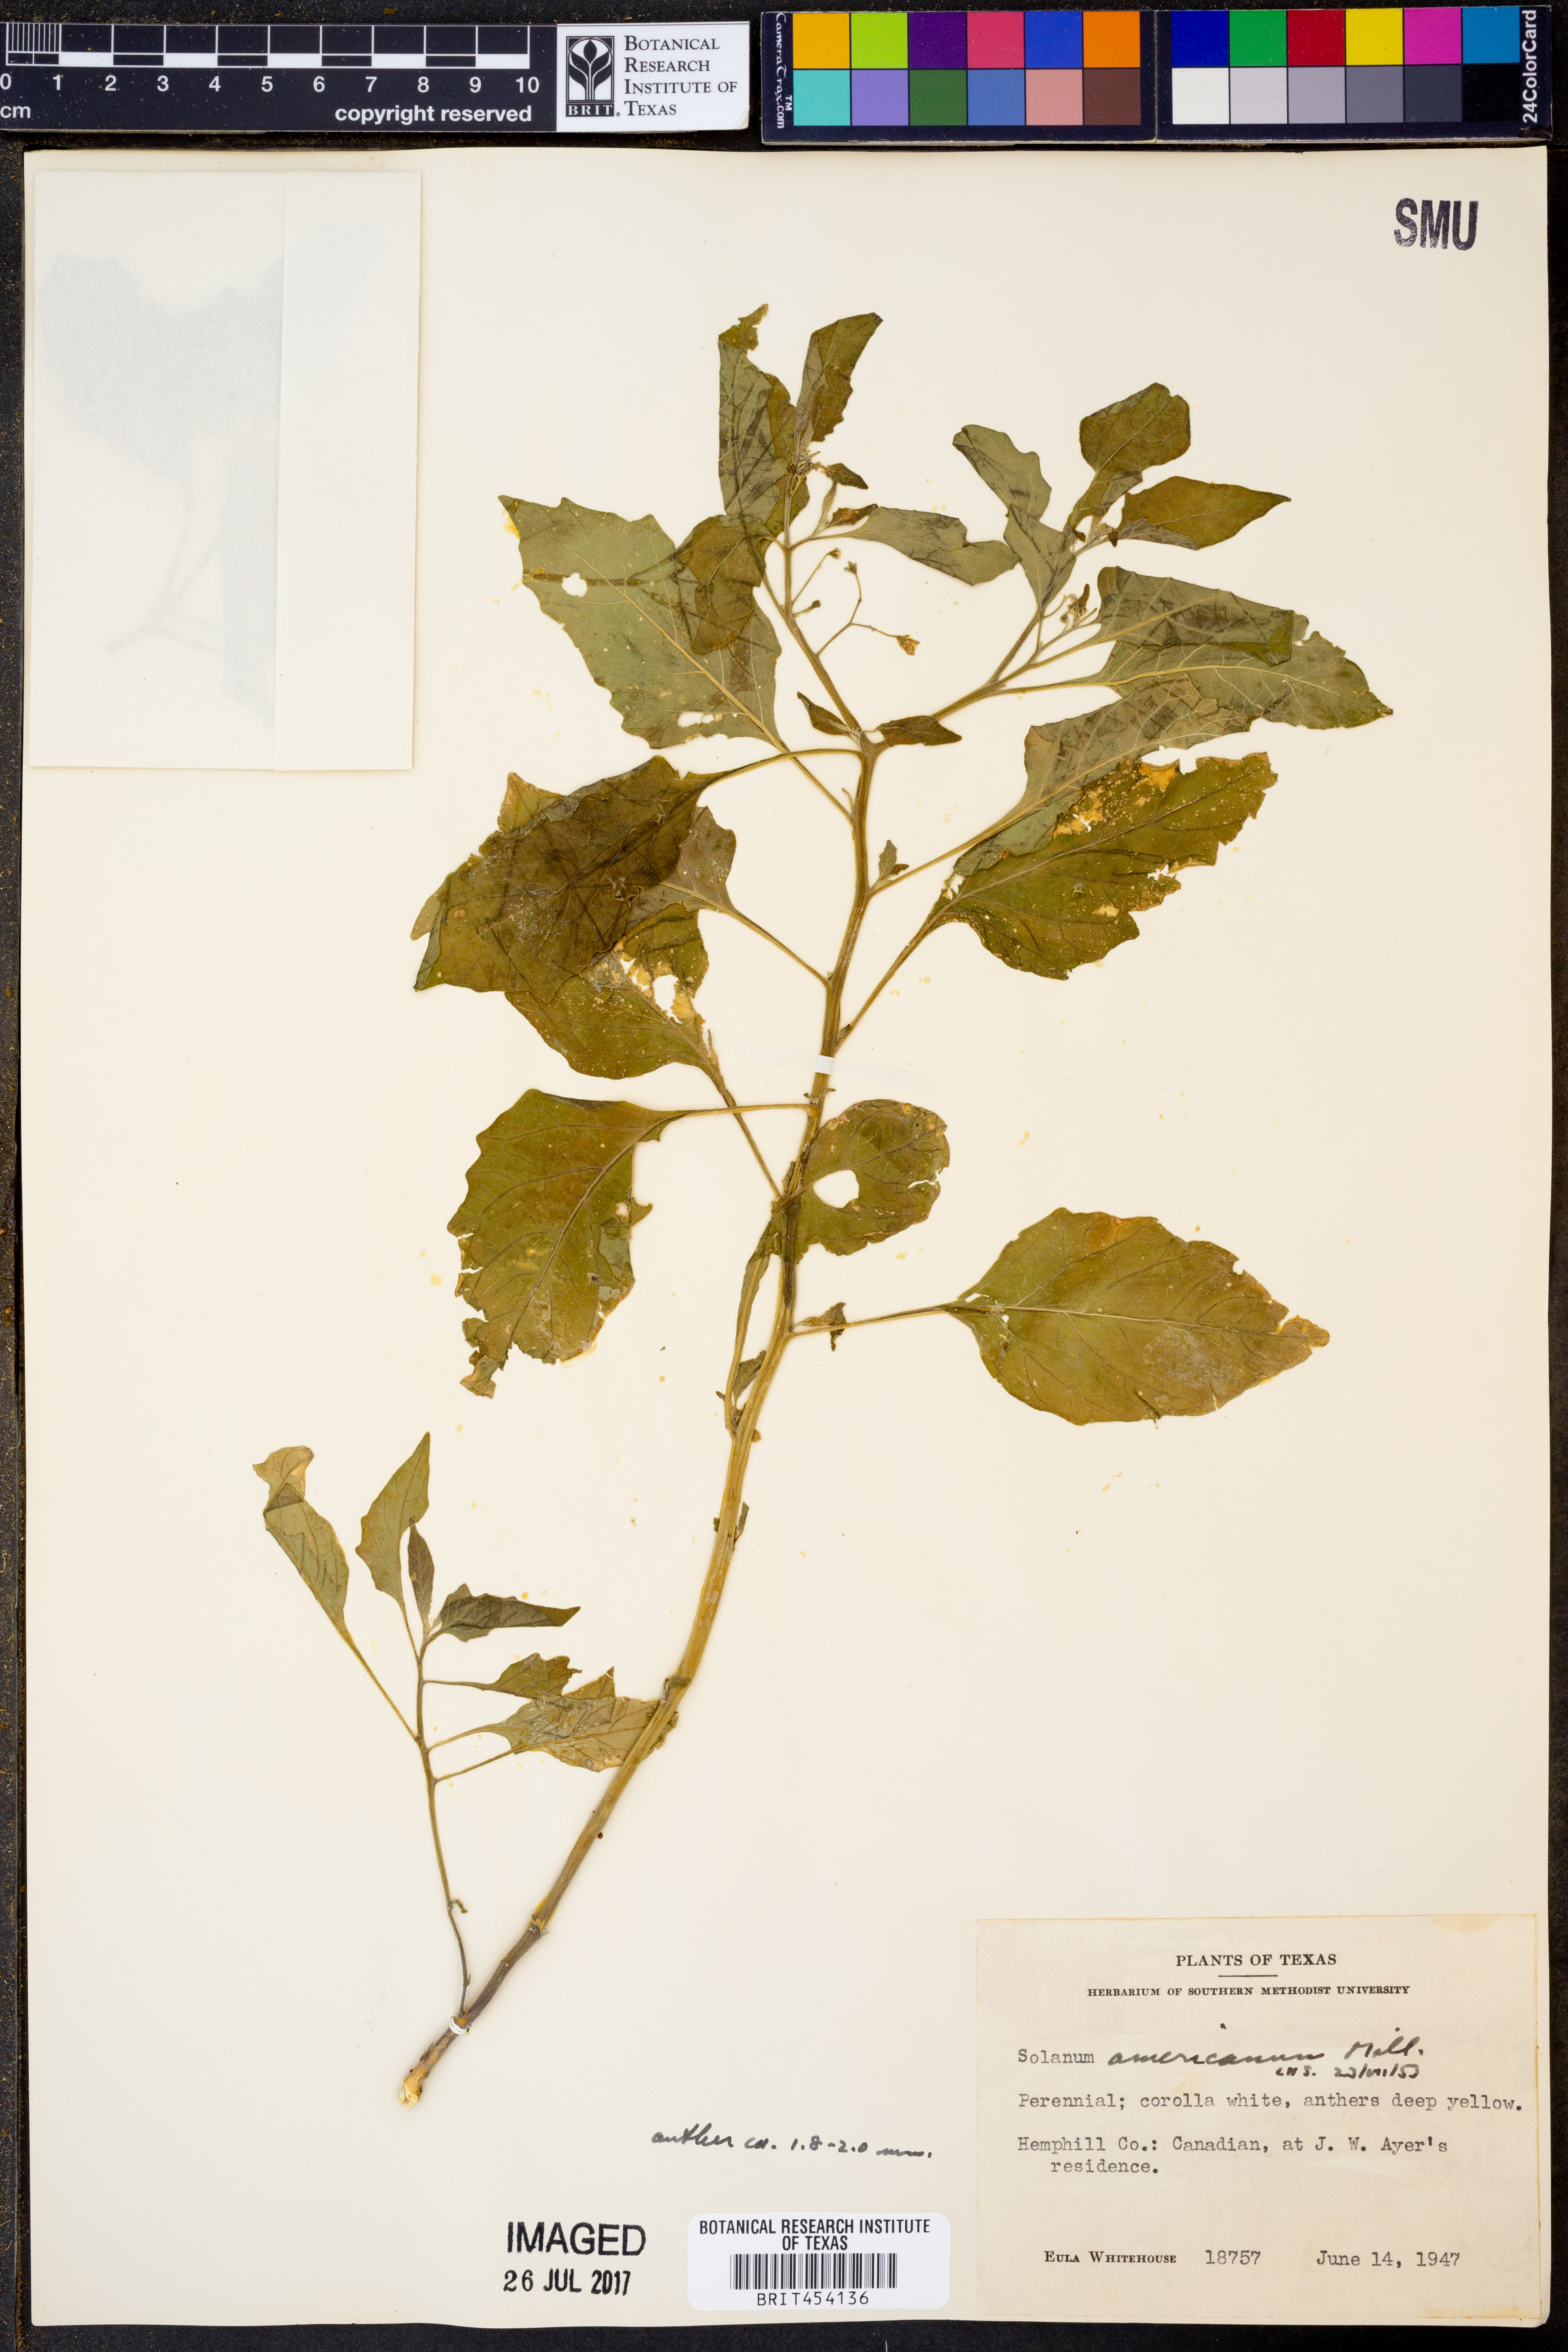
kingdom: Plantae
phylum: Tracheophyta
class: Magnoliopsida
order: Solanales
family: Solanaceae
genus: Solanum
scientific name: Solanum americanum
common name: American black nightshade
